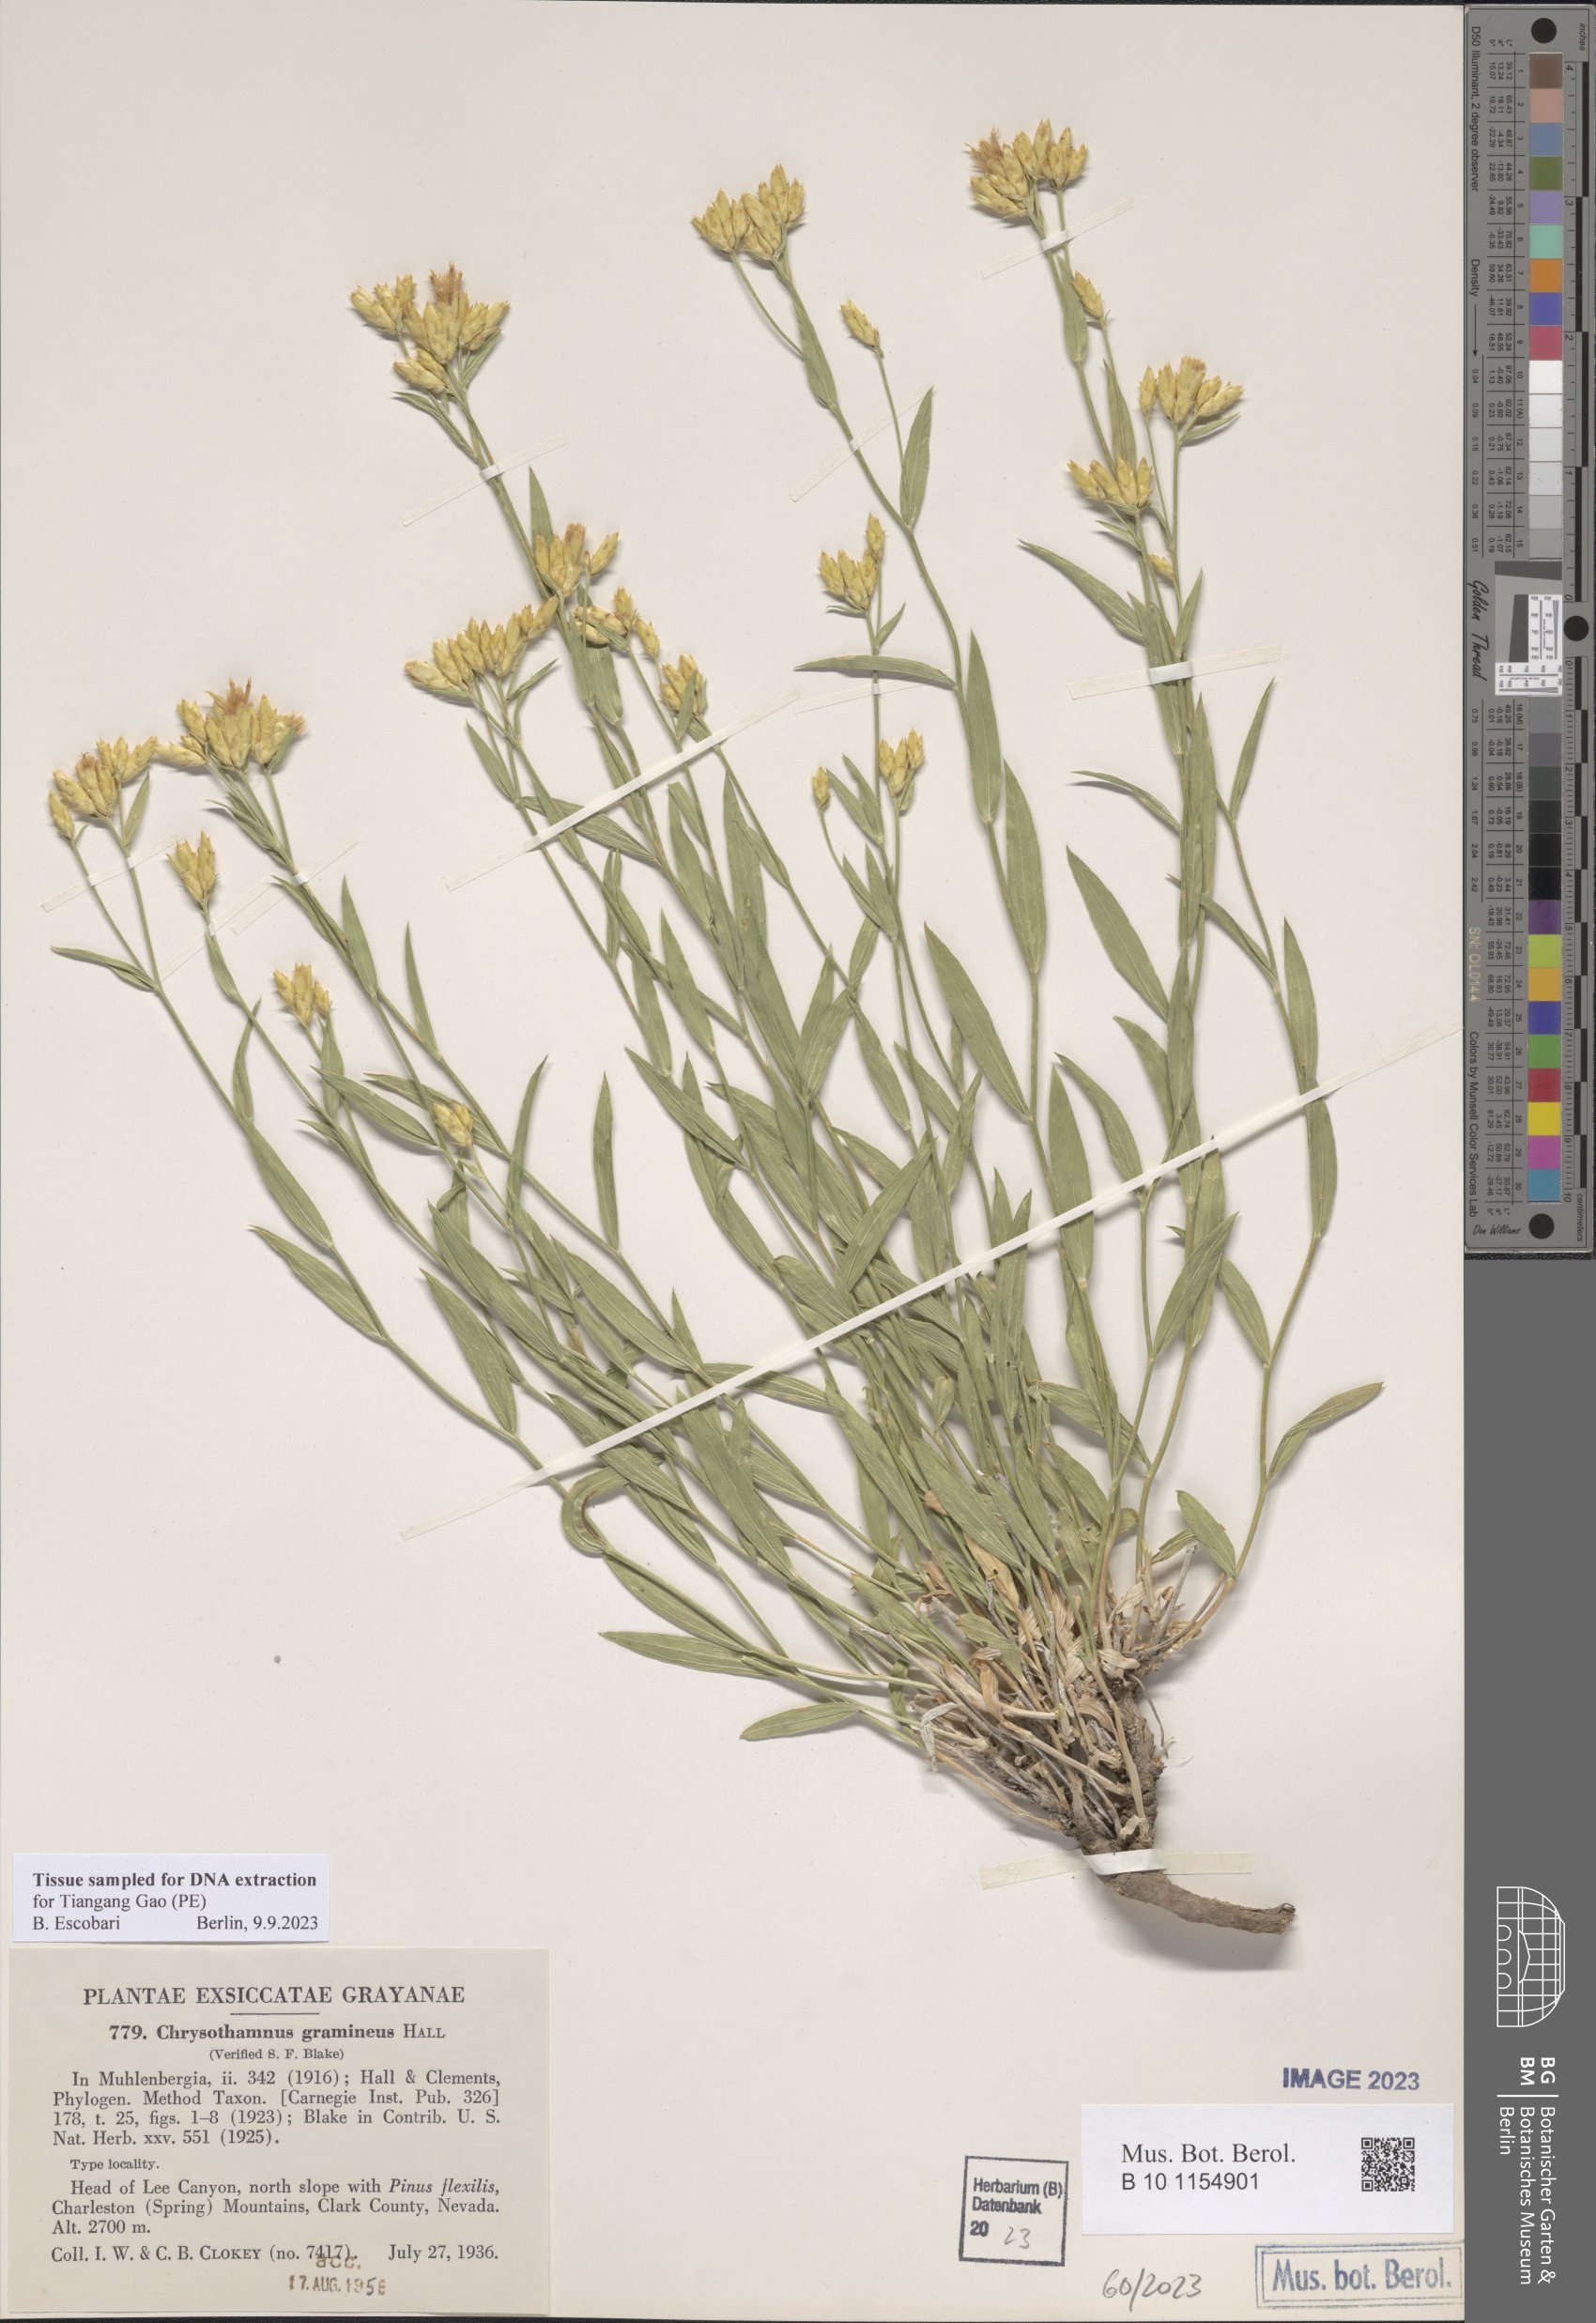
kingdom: Plantae
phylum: Tracheophyta
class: Magnoliopsida
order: Asterales
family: Asteraceae
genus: Cuniculotinus
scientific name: Cuniculotinus gramineus
